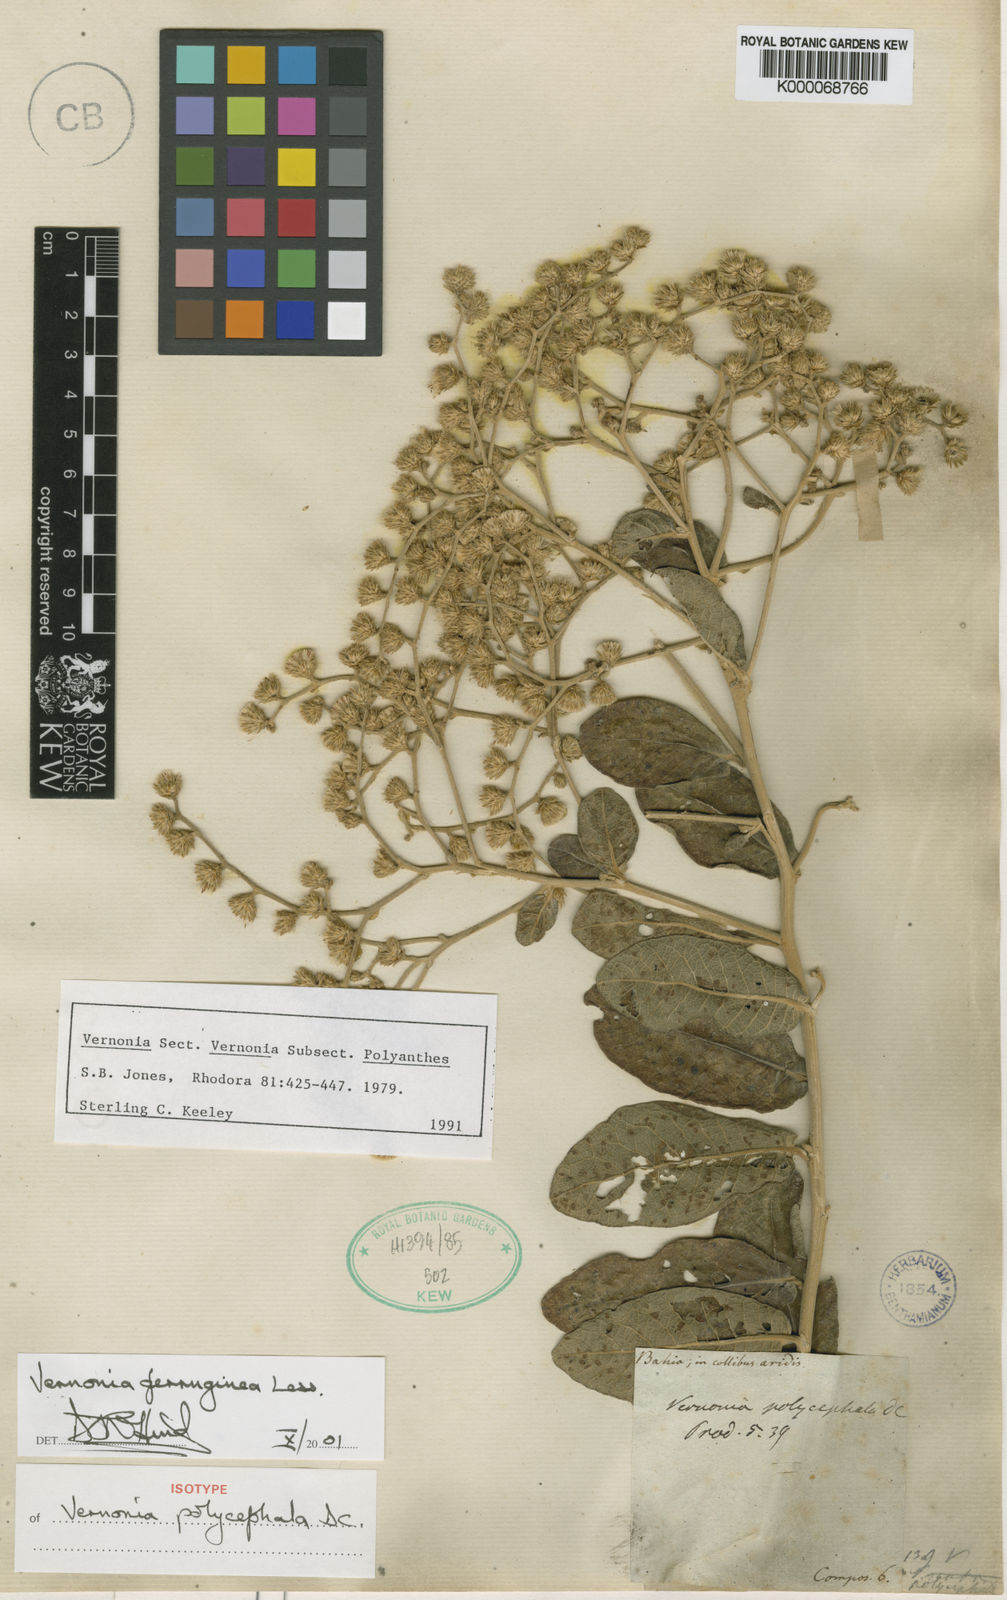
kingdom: Plantae
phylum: Tracheophyta
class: Magnoliopsida
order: Asterales
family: Asteraceae
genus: Vernonanthura
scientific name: Vernonanthura ferruginea
